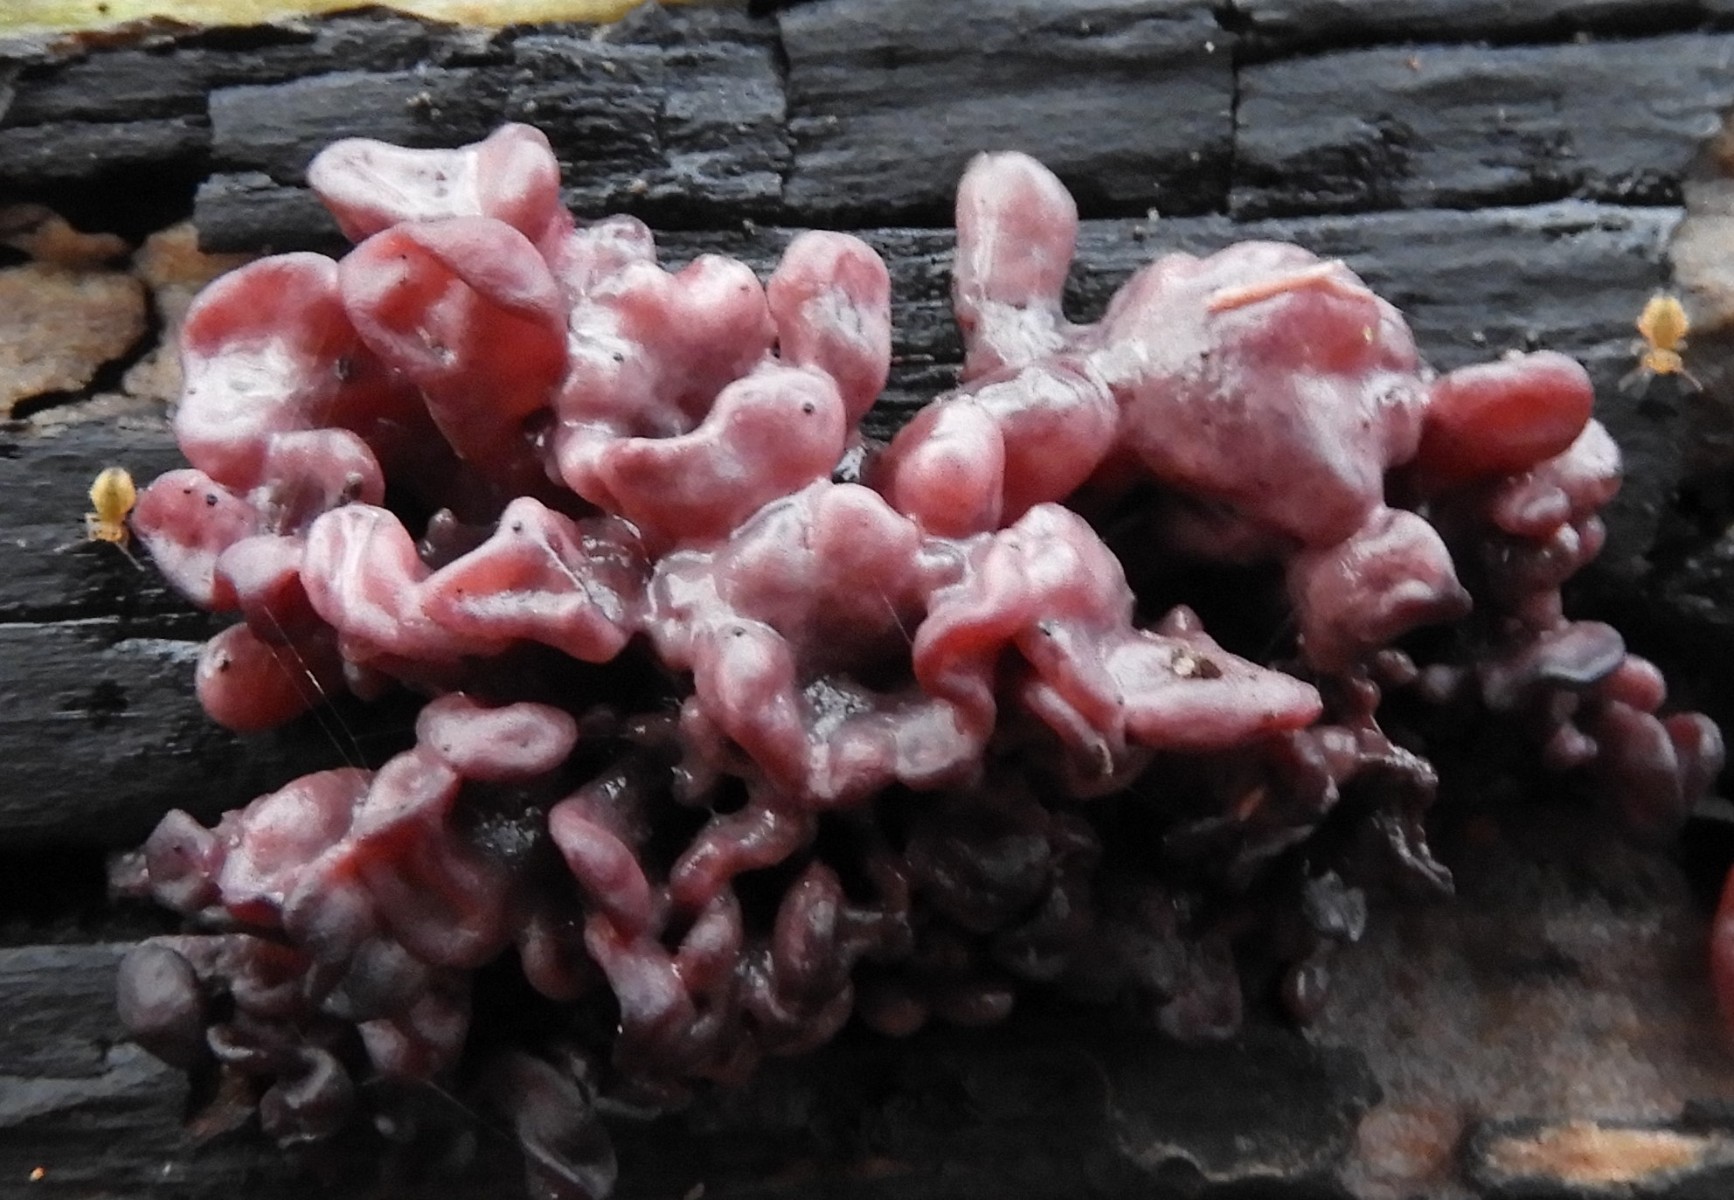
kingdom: Fungi
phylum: Ascomycota
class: Leotiomycetes
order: Helotiales
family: Gelatinodiscaceae
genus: Ascocoryne
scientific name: Ascocoryne sarcoides
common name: rødlilla sejskive
